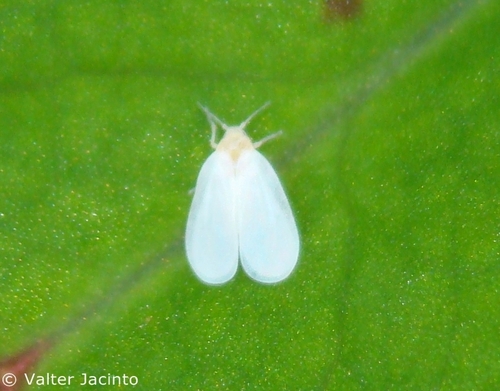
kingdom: Animalia
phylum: Arthropoda
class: Insecta
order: Hemiptera
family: Aleyrodidae
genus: Bemisia
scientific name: Bemisia tabaci
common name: Sweetpotato whitefly
